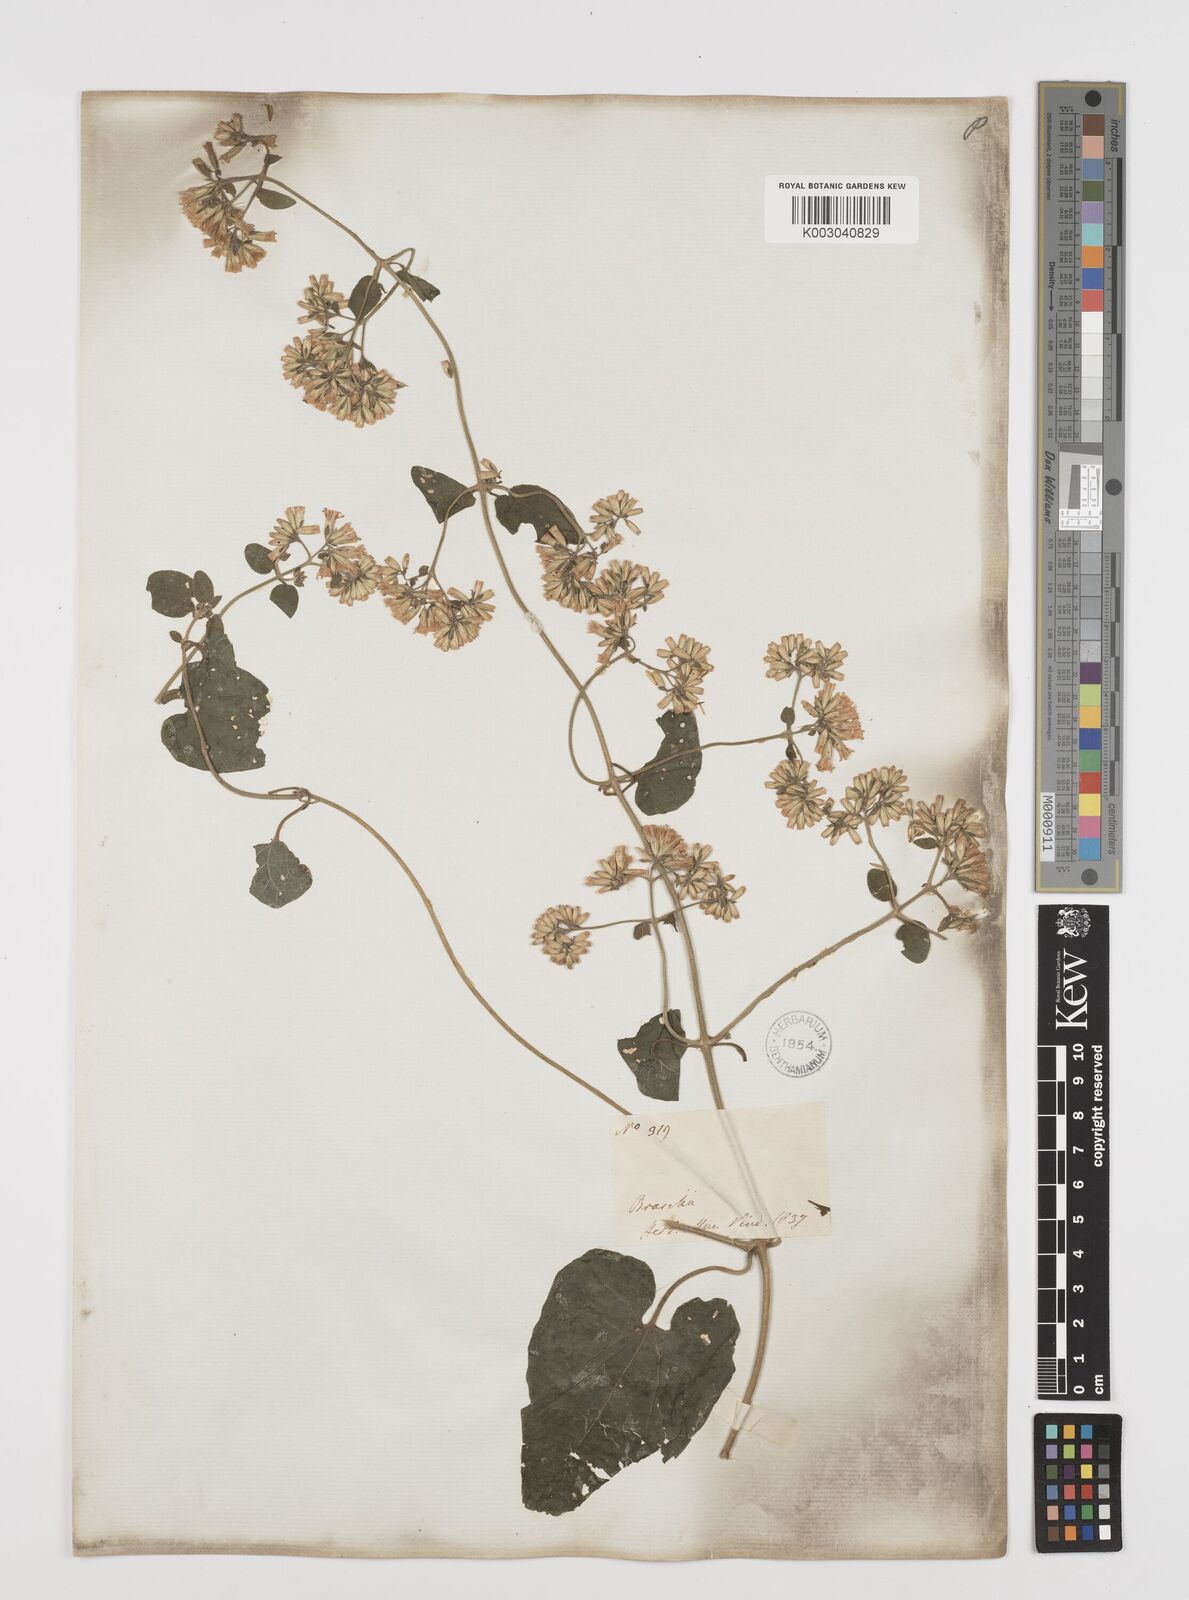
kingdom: Plantae
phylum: Tracheophyta
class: Magnoliopsida
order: Asterales
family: Asteraceae
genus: Mikania
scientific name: Mikania cordifolia
